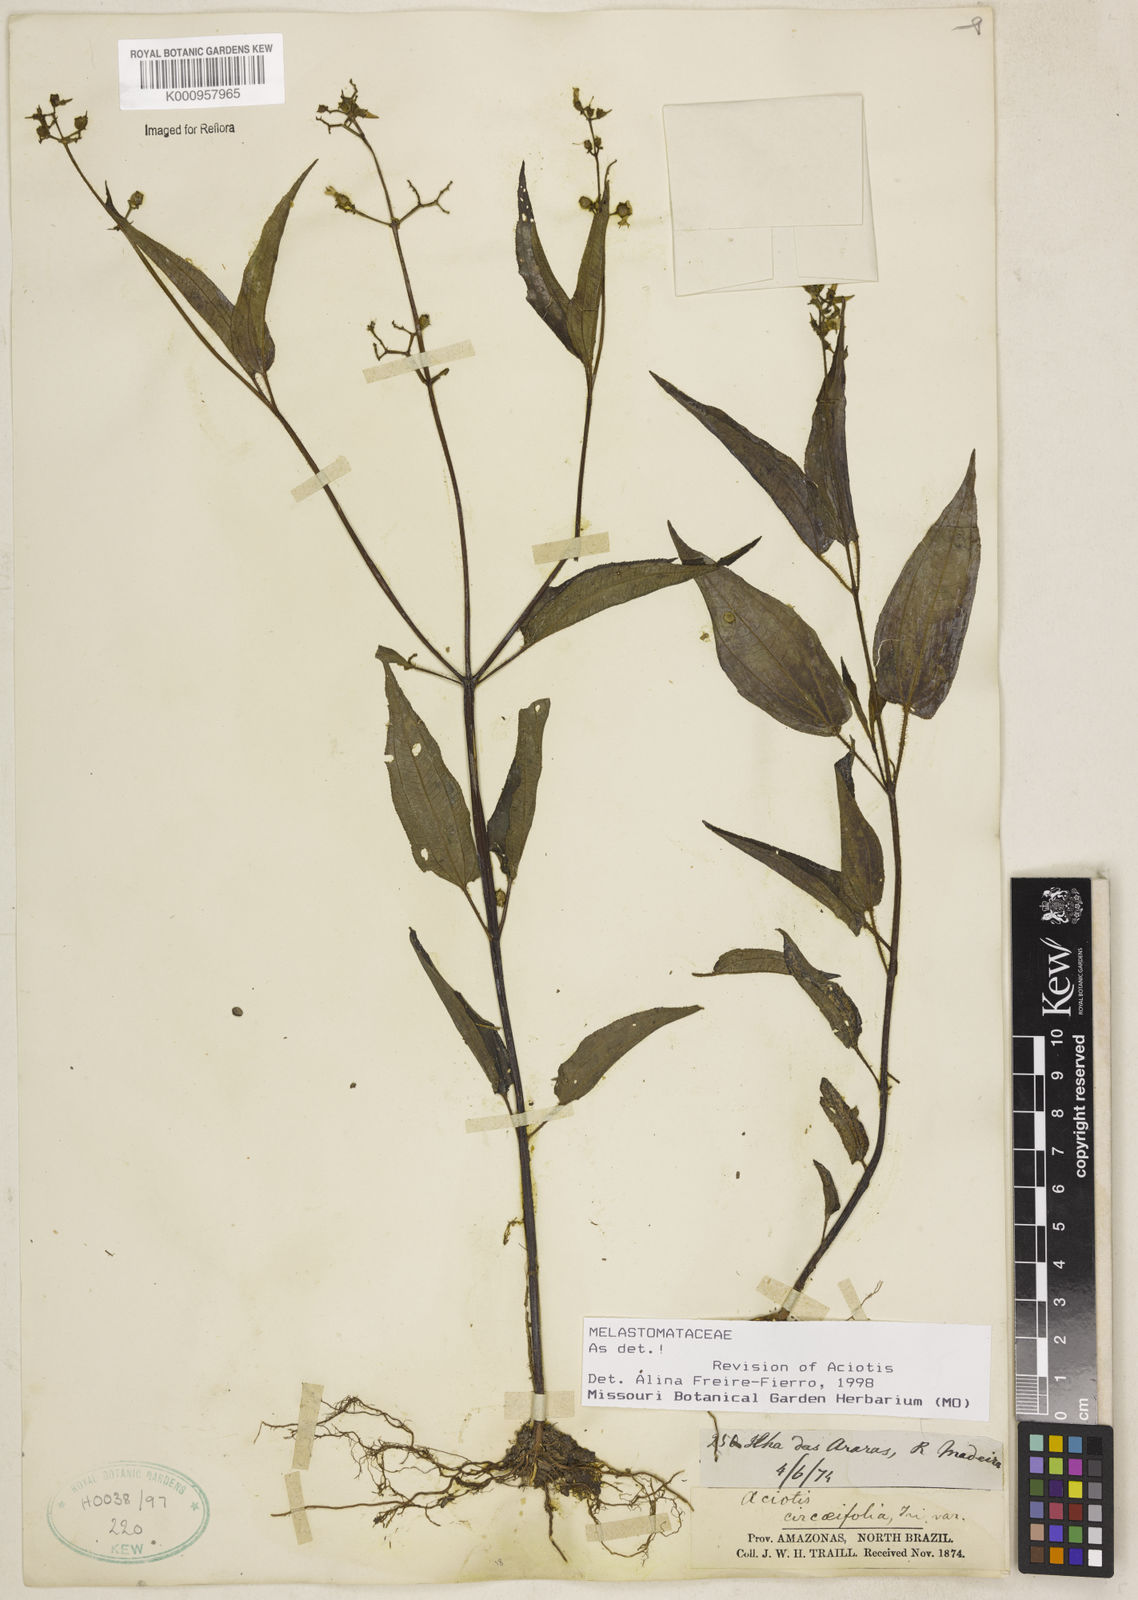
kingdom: Plantae
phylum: Tracheophyta
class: Magnoliopsida
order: Myrtales
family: Melastomataceae
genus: Aciotis
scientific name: Aciotis circaeifolia
